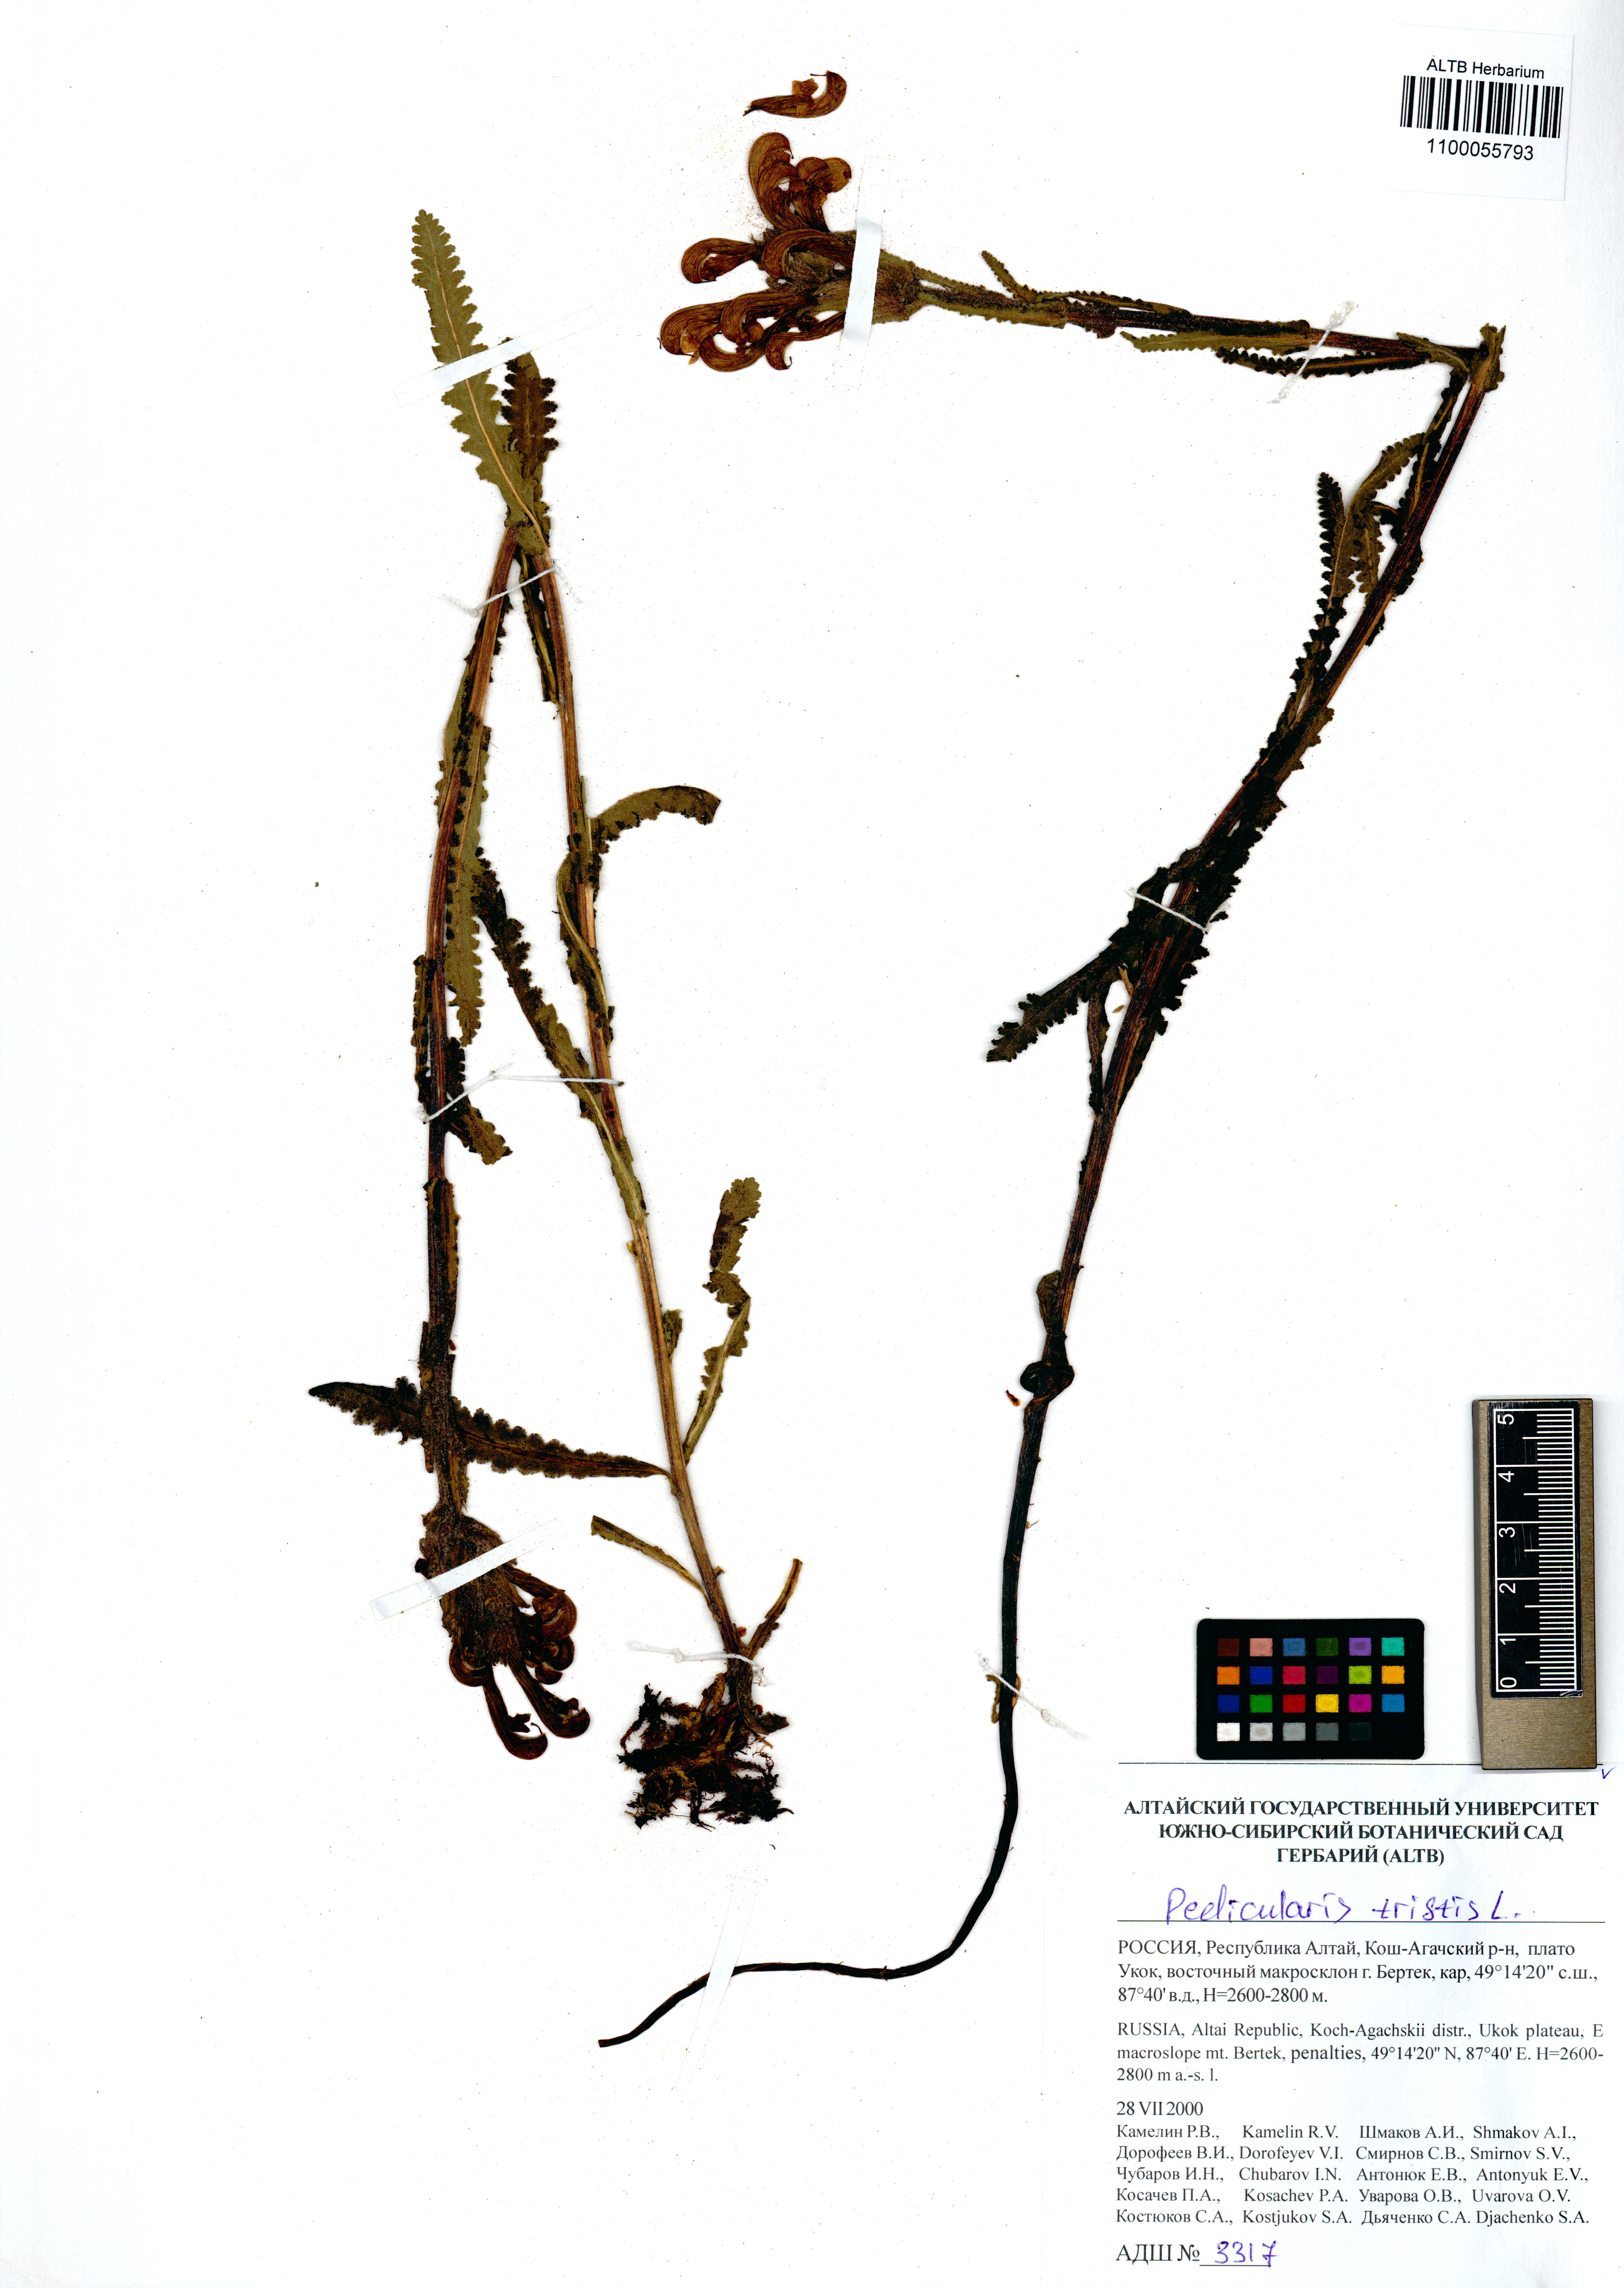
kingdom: Plantae
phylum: Tracheophyta
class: Magnoliopsida
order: Lamiales
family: Orobanchaceae
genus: Pedicularis
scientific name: Pedicularis tristis
